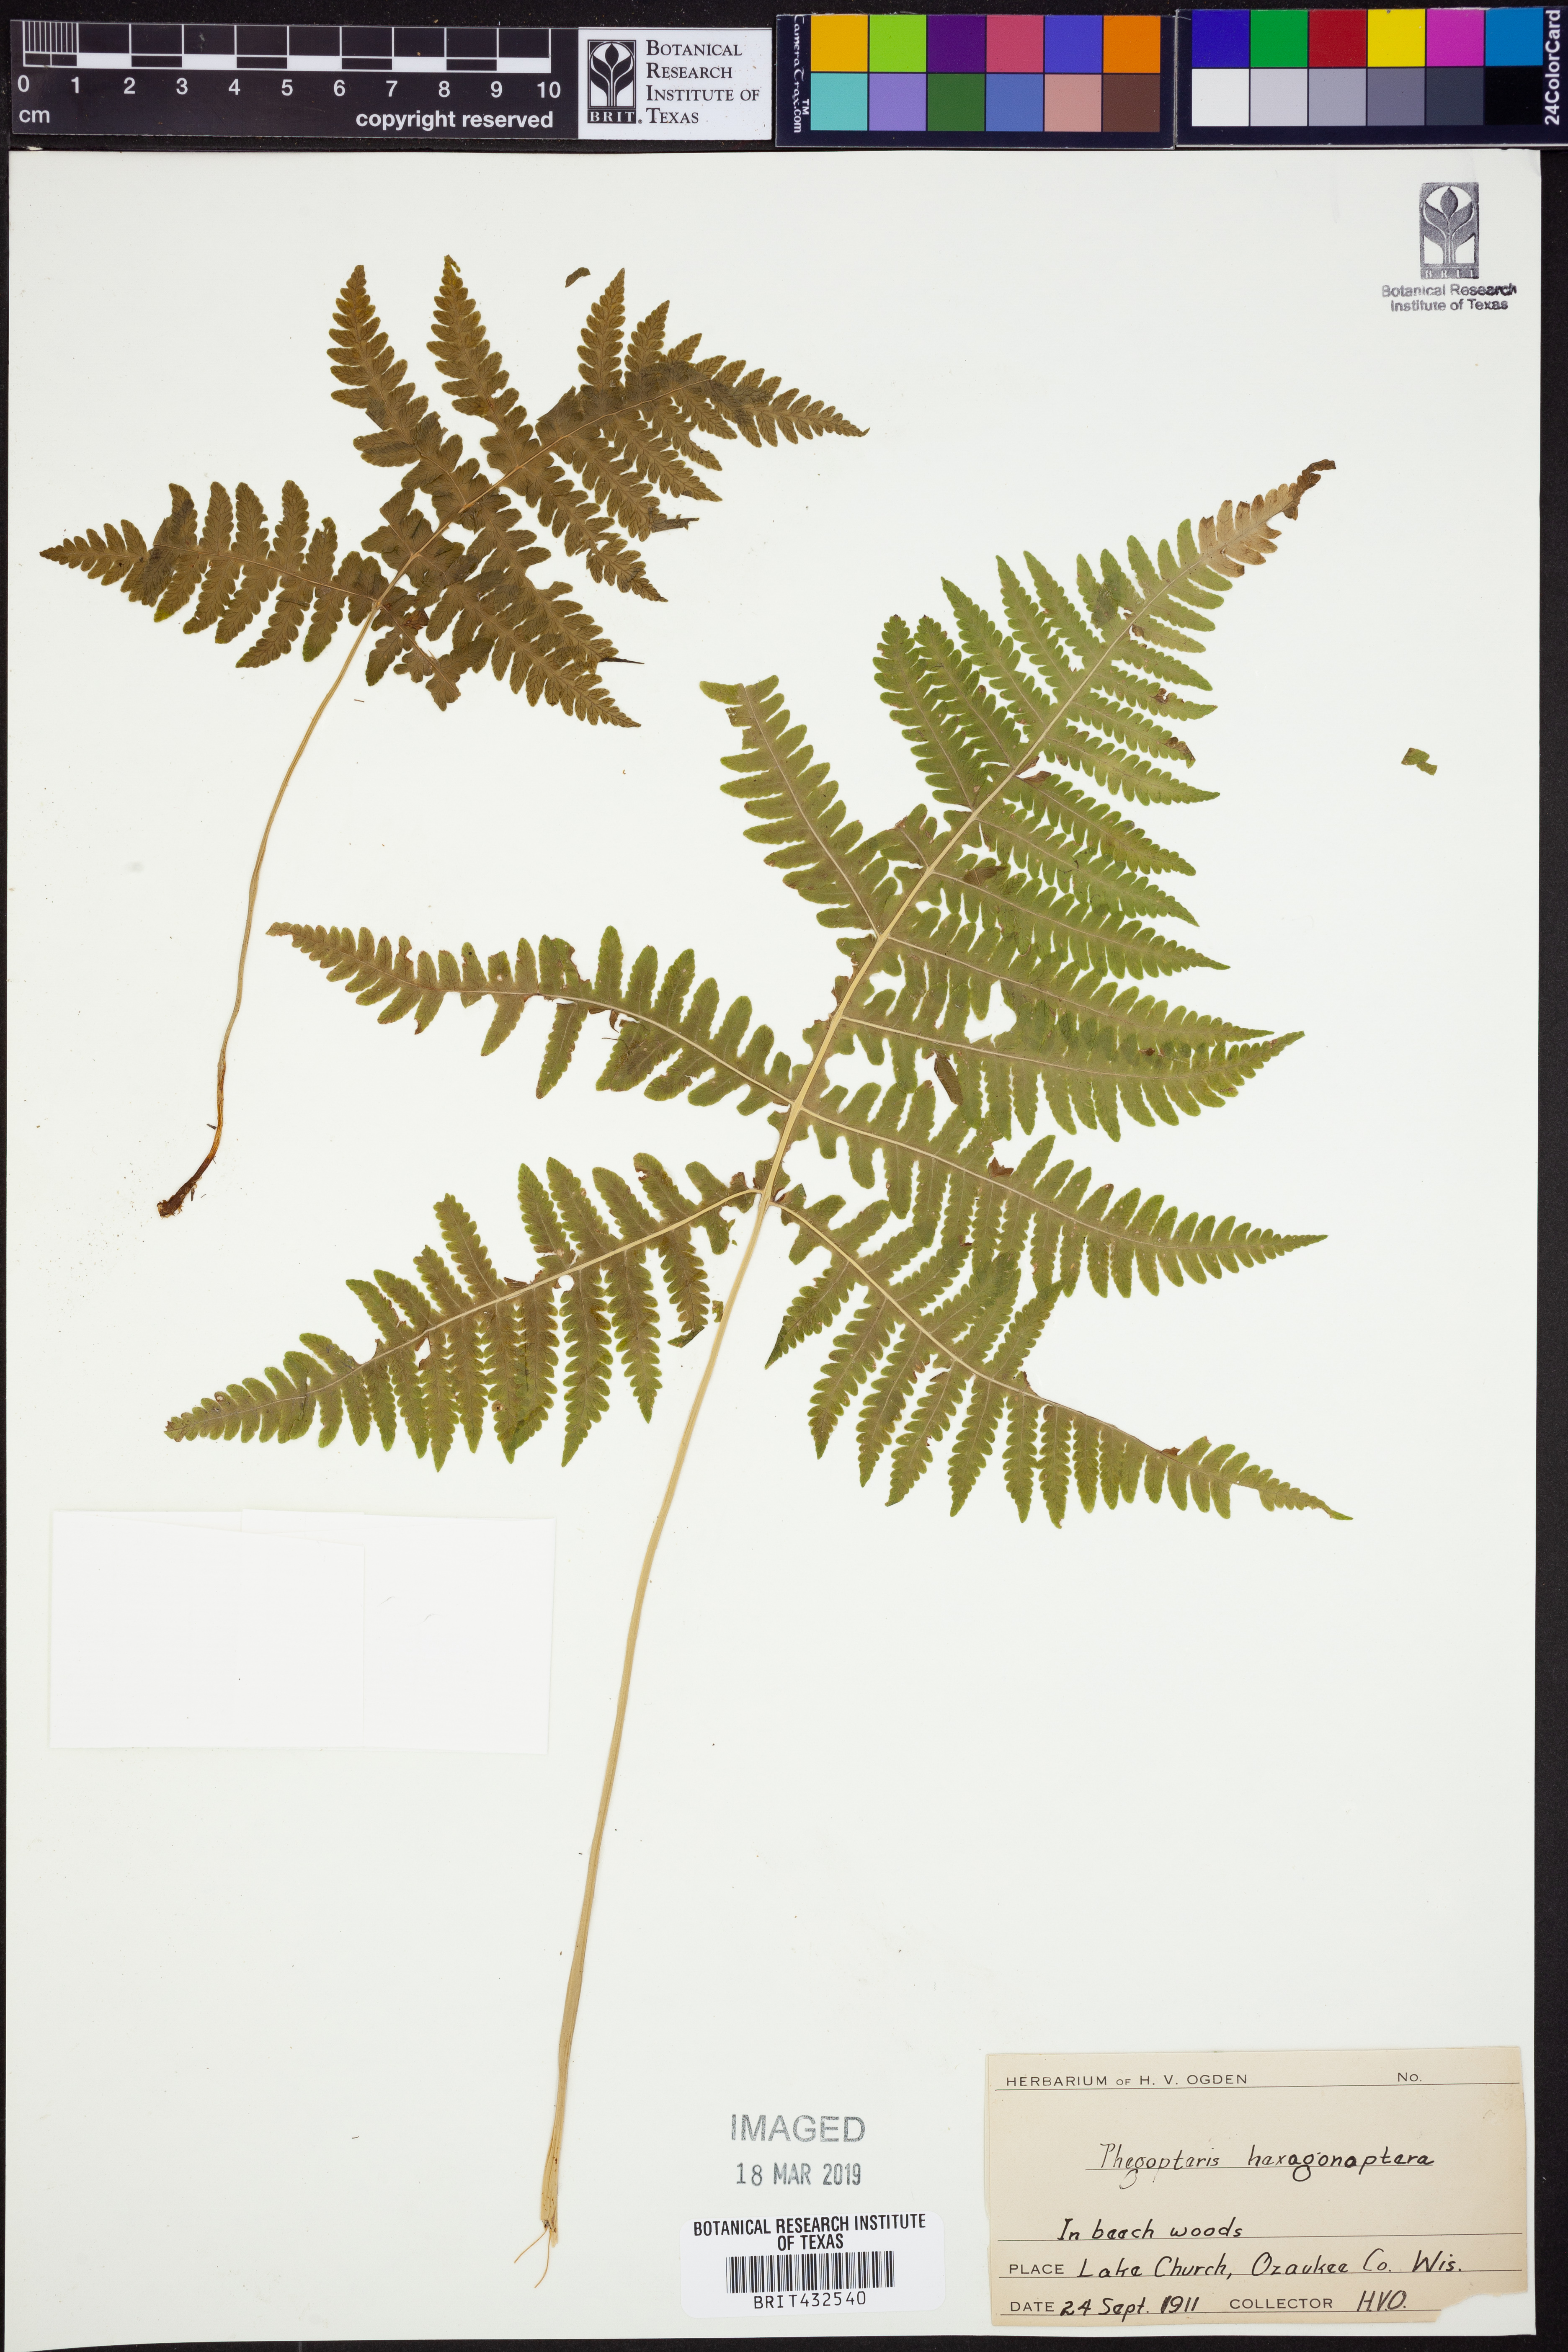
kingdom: Plantae
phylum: Tracheophyta
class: Polypodiopsida
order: Polypodiales
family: Thelypteridaceae
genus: Phegopteris
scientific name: Phegopteris hexagonoptera
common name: Broad beech fern
